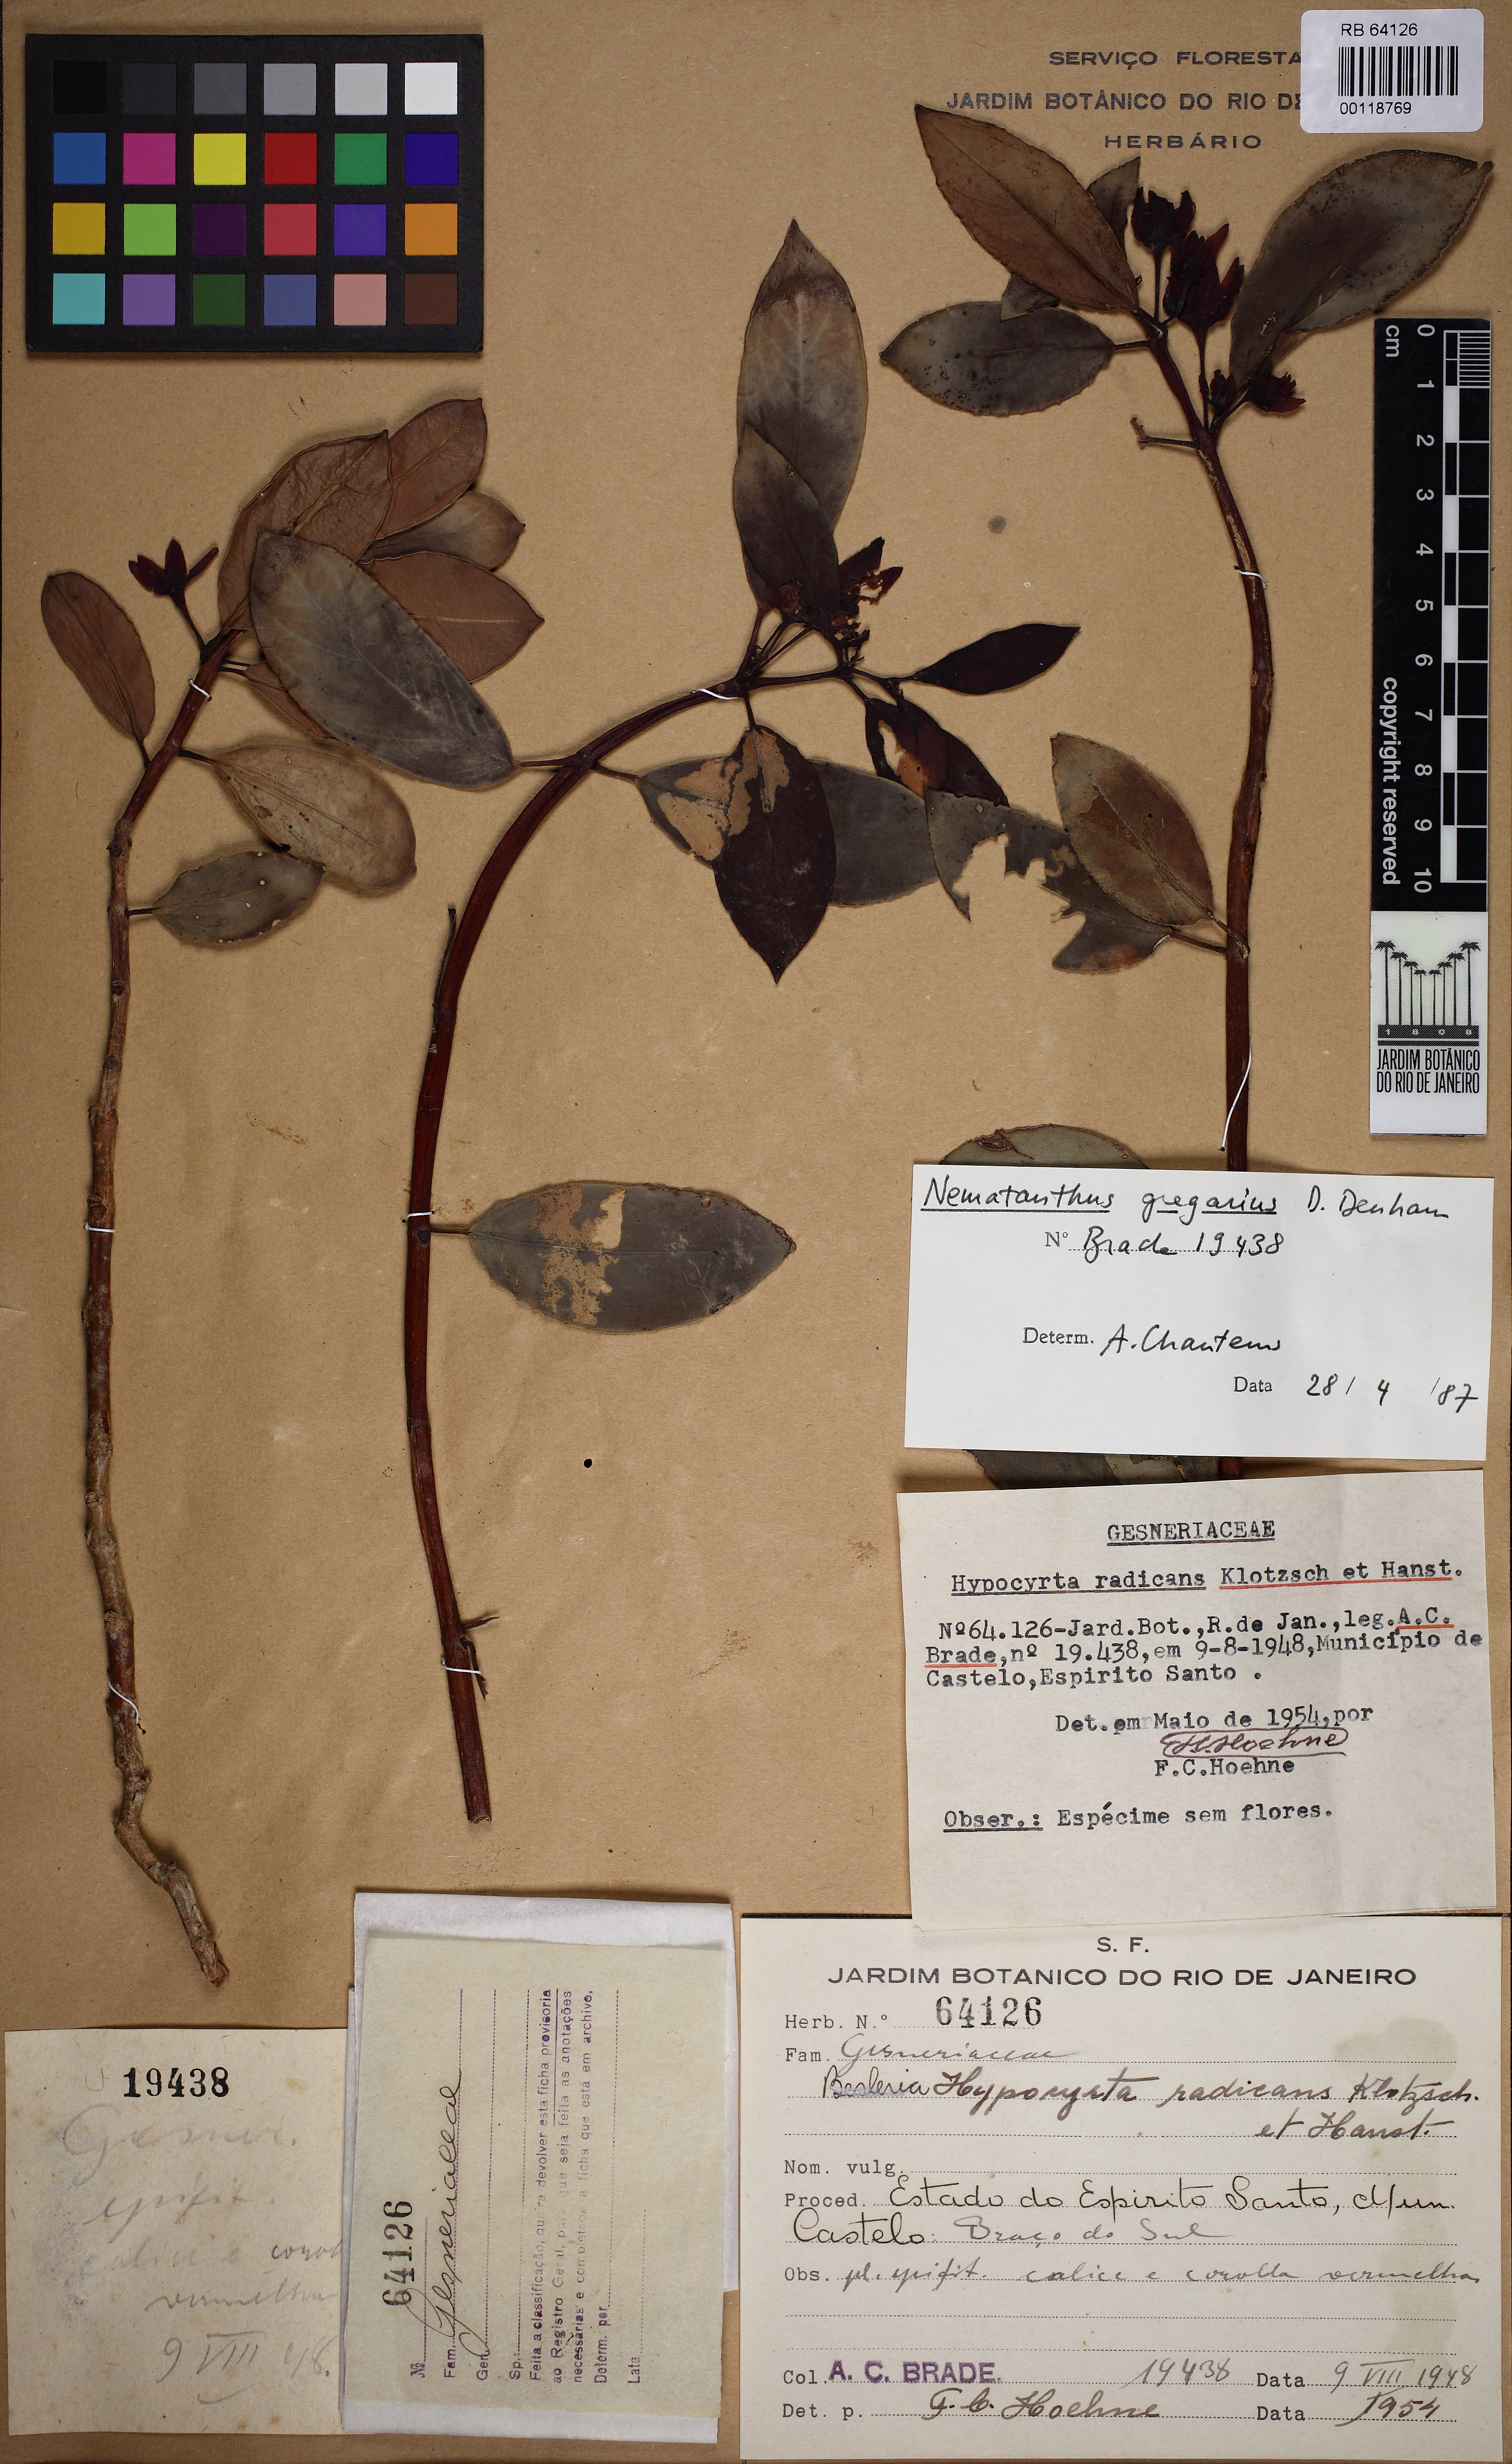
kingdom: Plantae
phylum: Tracheophyta
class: Magnoliopsida
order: Lamiales
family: Gesneriaceae
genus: Nematanthus
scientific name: Nematanthus kautskyi
